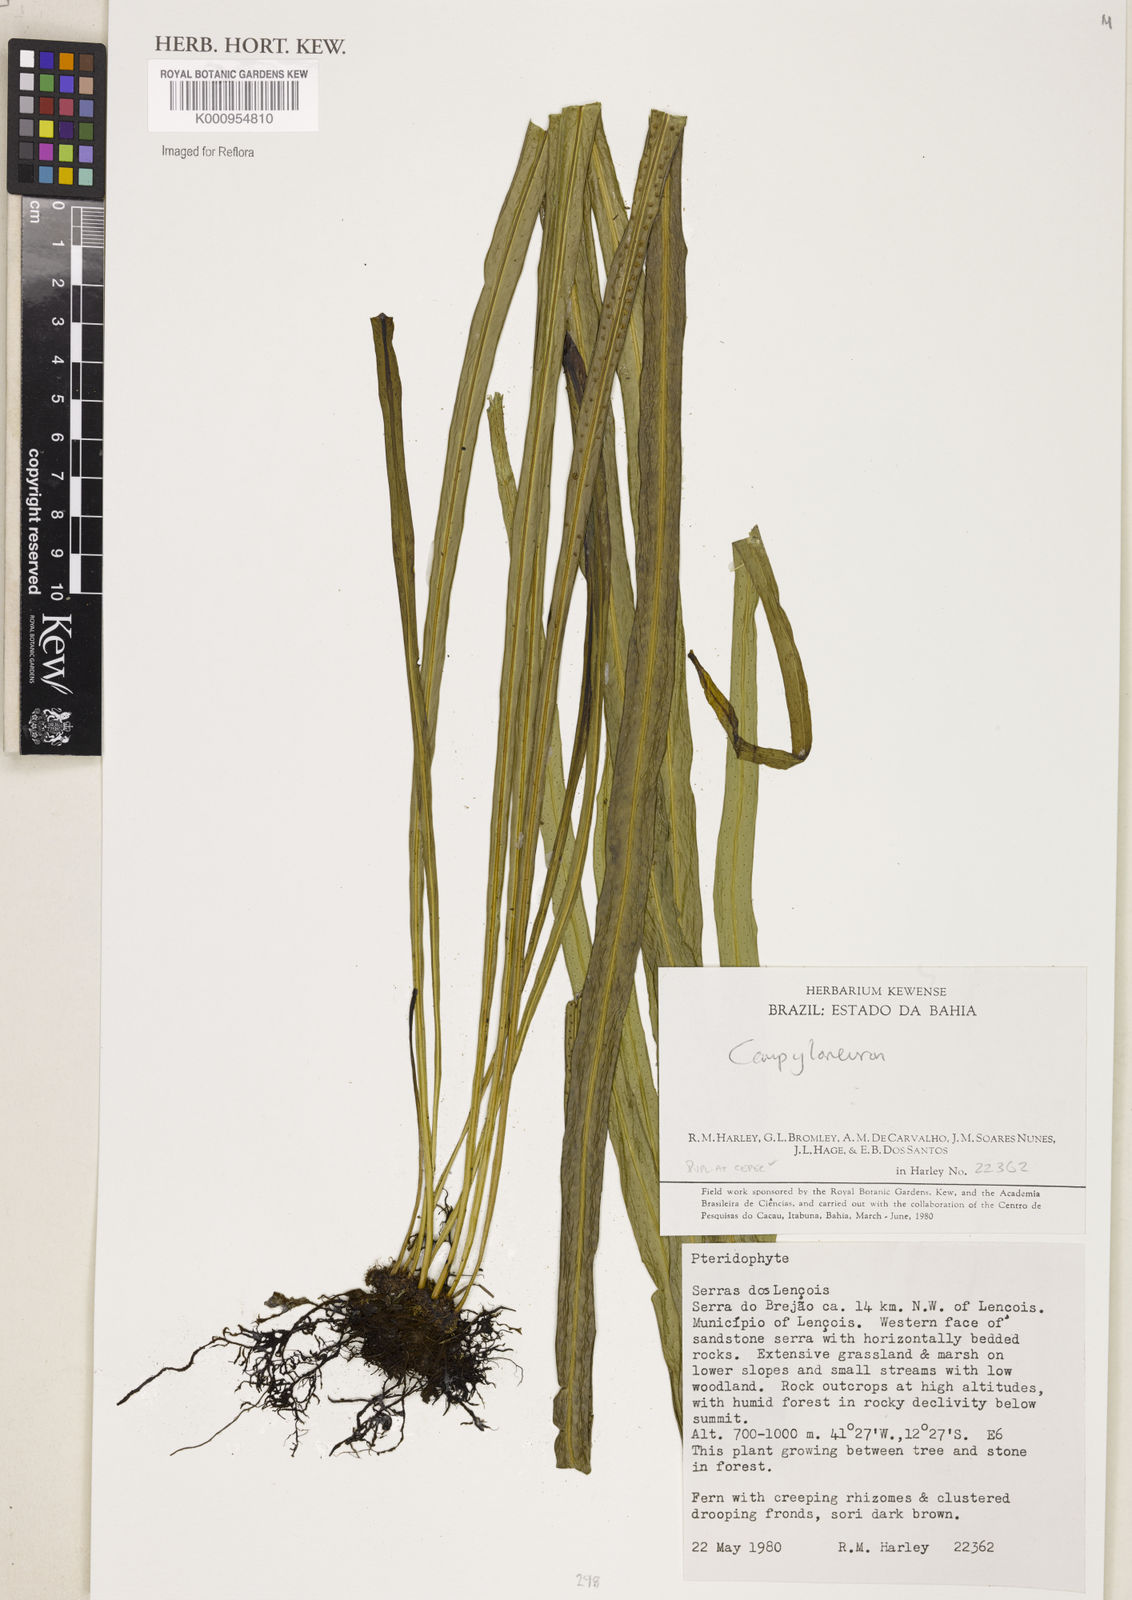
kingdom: Plantae
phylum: Tracheophyta
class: Polypodiopsida
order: Polypodiales
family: Polypodiaceae
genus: Campyloneurum
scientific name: Campyloneurum
